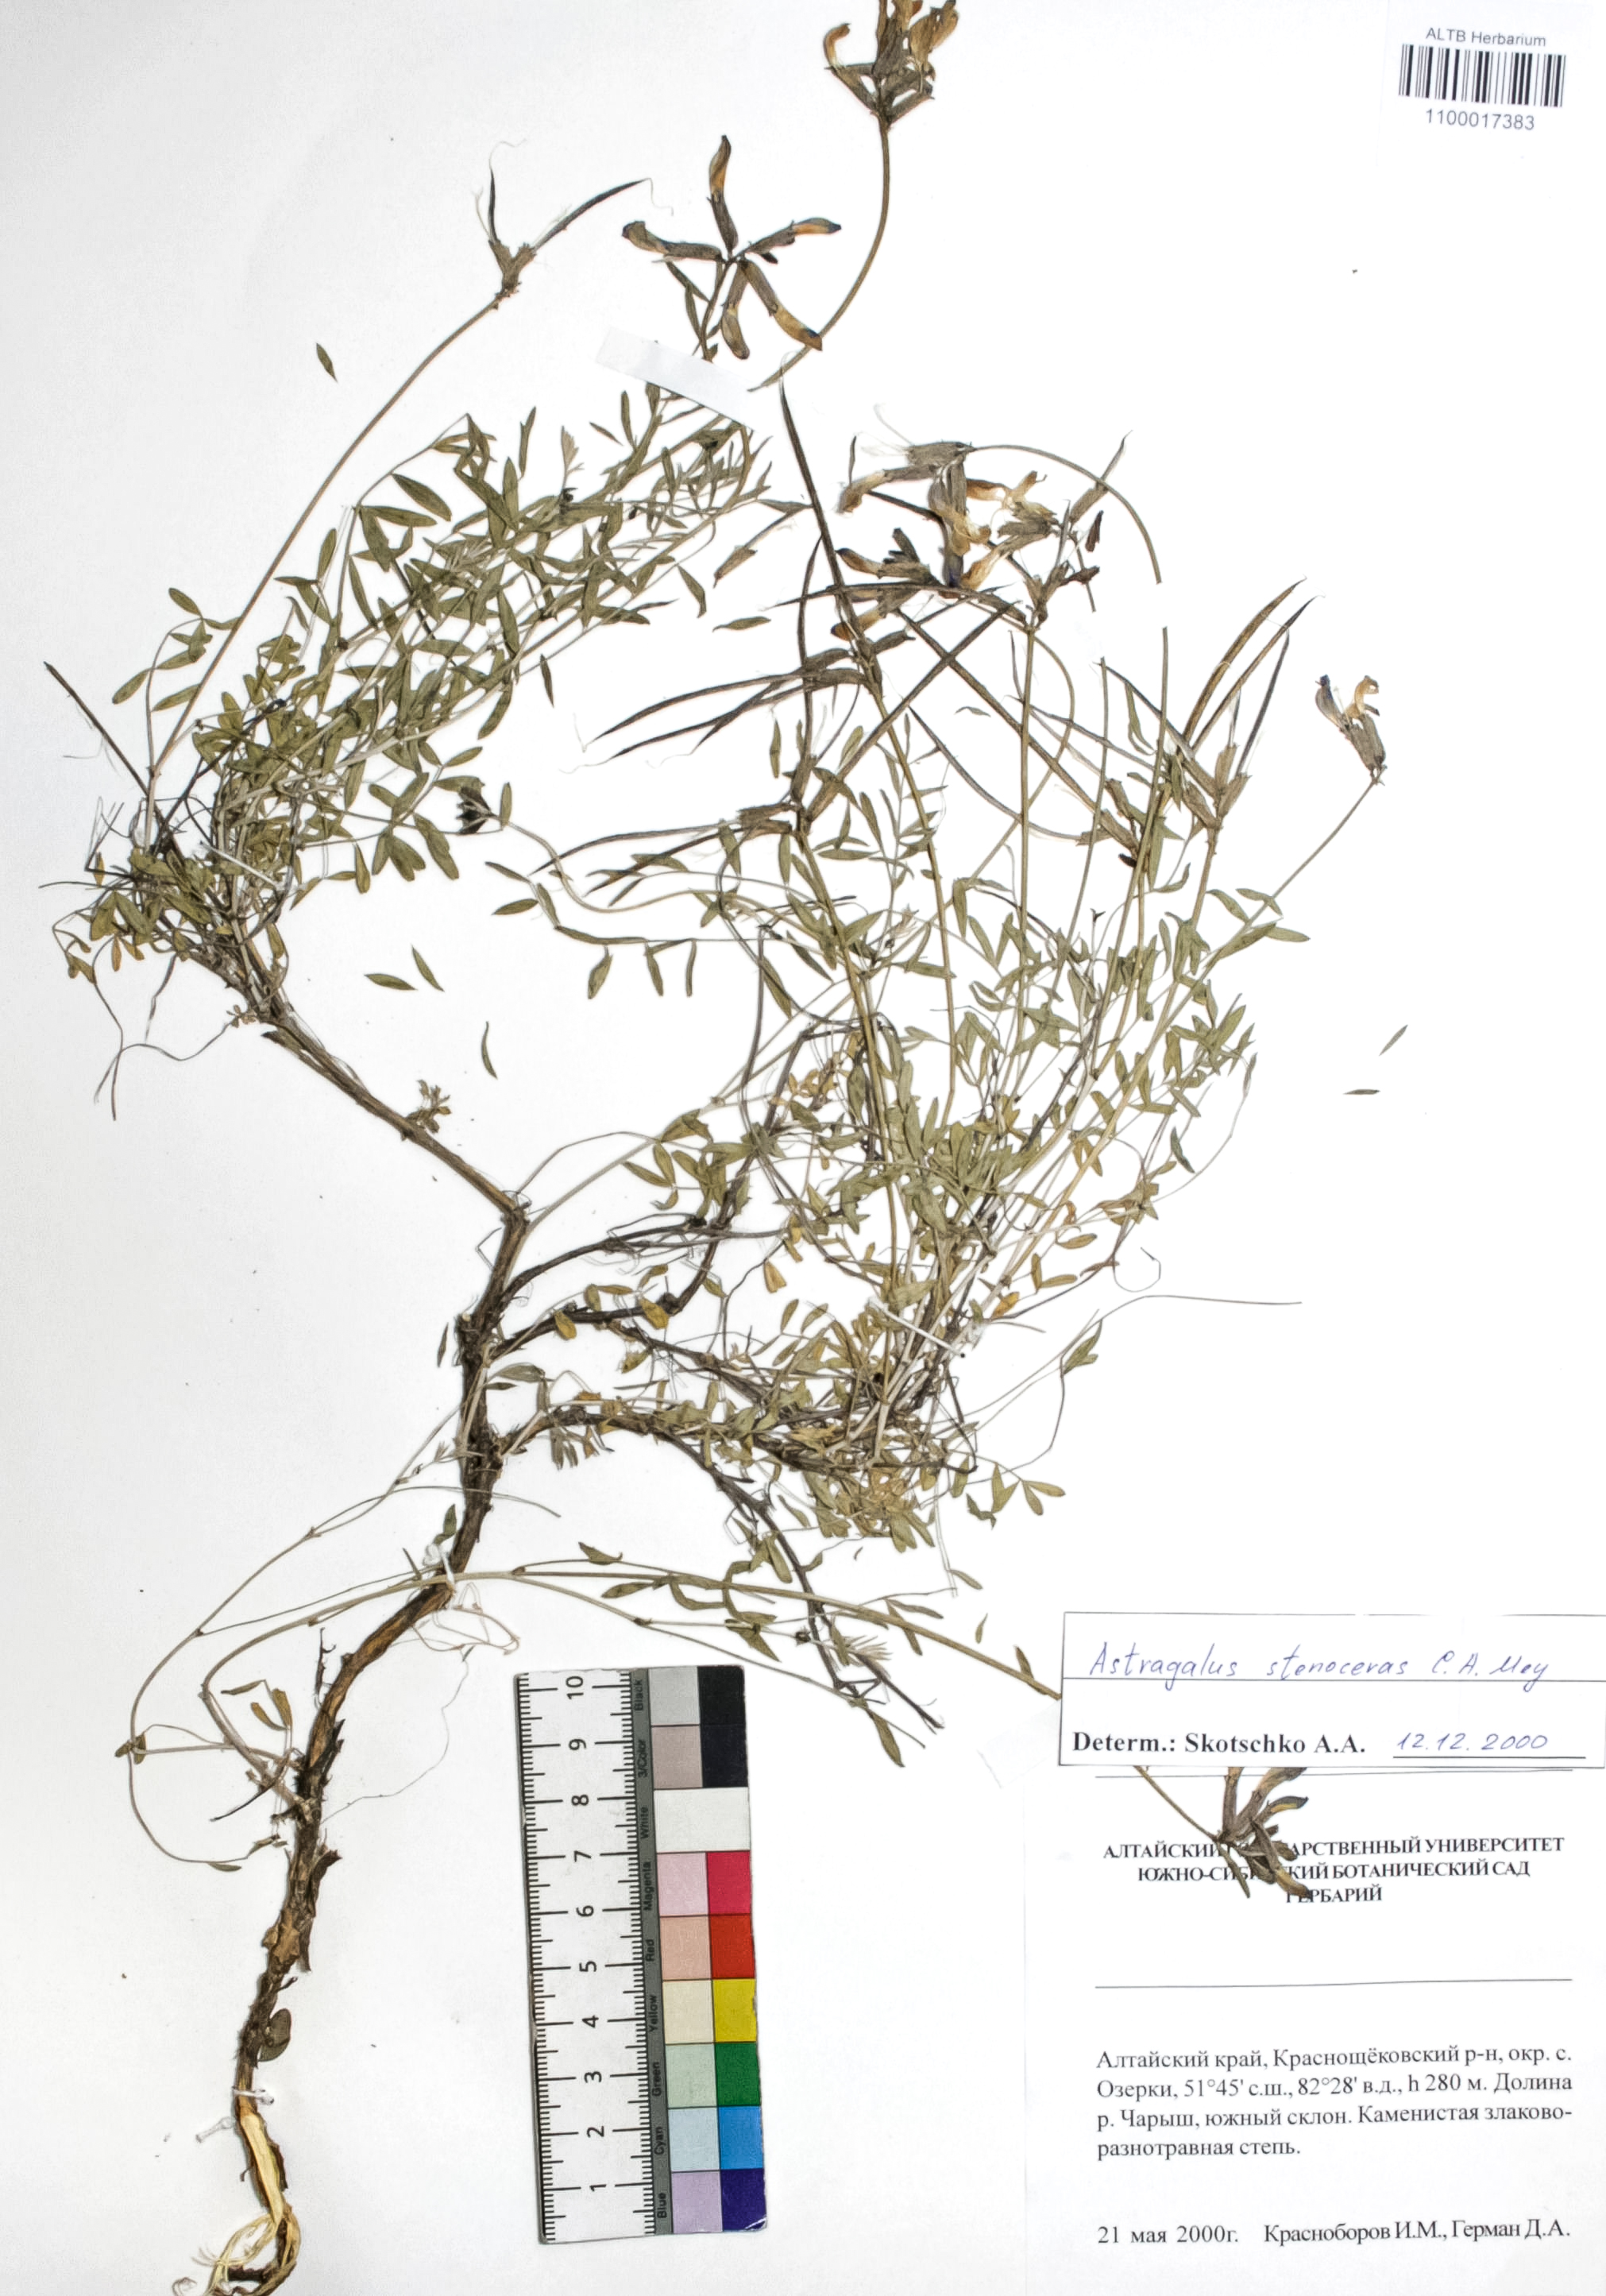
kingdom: Plantae
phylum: Tracheophyta
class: Magnoliopsida
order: Fabales
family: Fabaceae
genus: Astragalus
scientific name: Astragalus stenoceras
